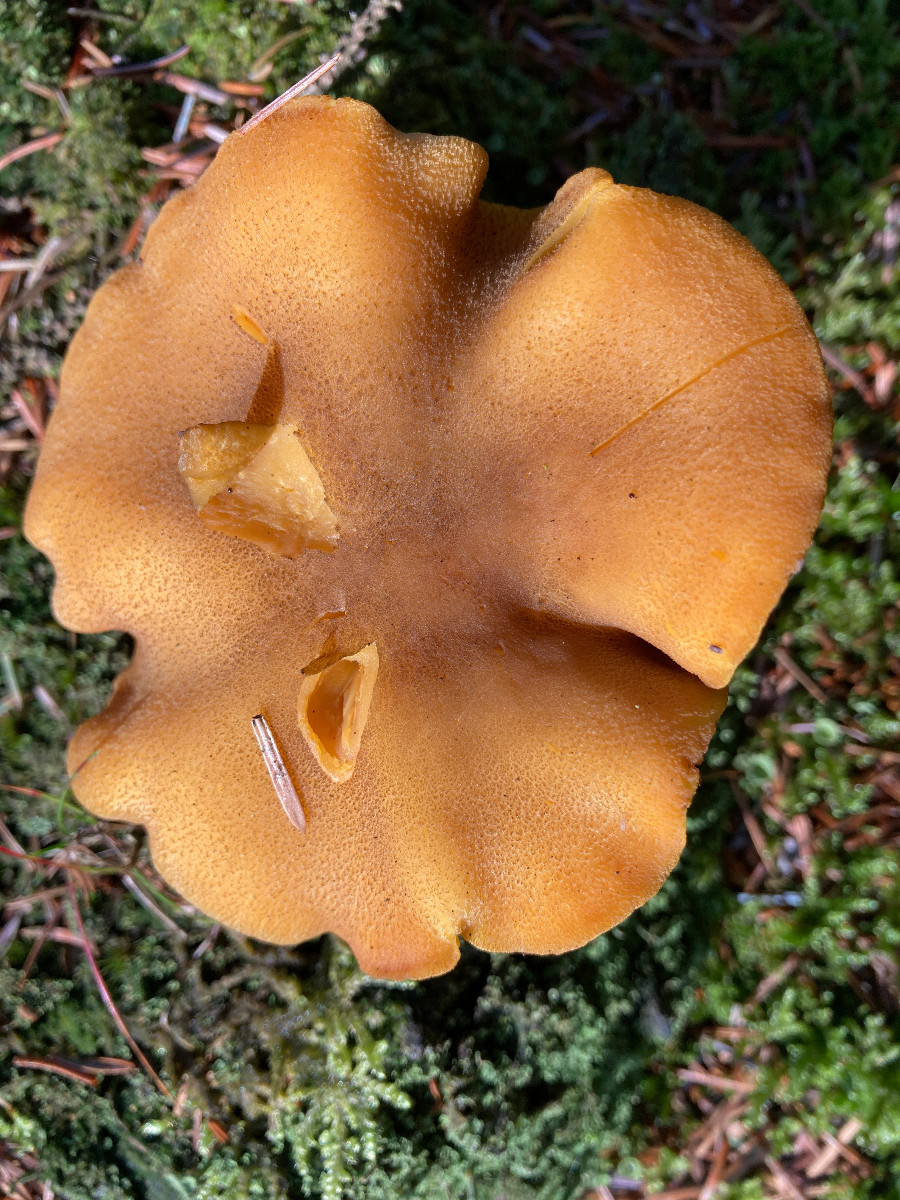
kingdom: Fungi
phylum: Basidiomycota
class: Agaricomycetes
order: Agaricales
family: Tricholomataceae
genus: Tricholomopsis
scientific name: Tricholomopsis decora
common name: sortskællet væbnerhat
